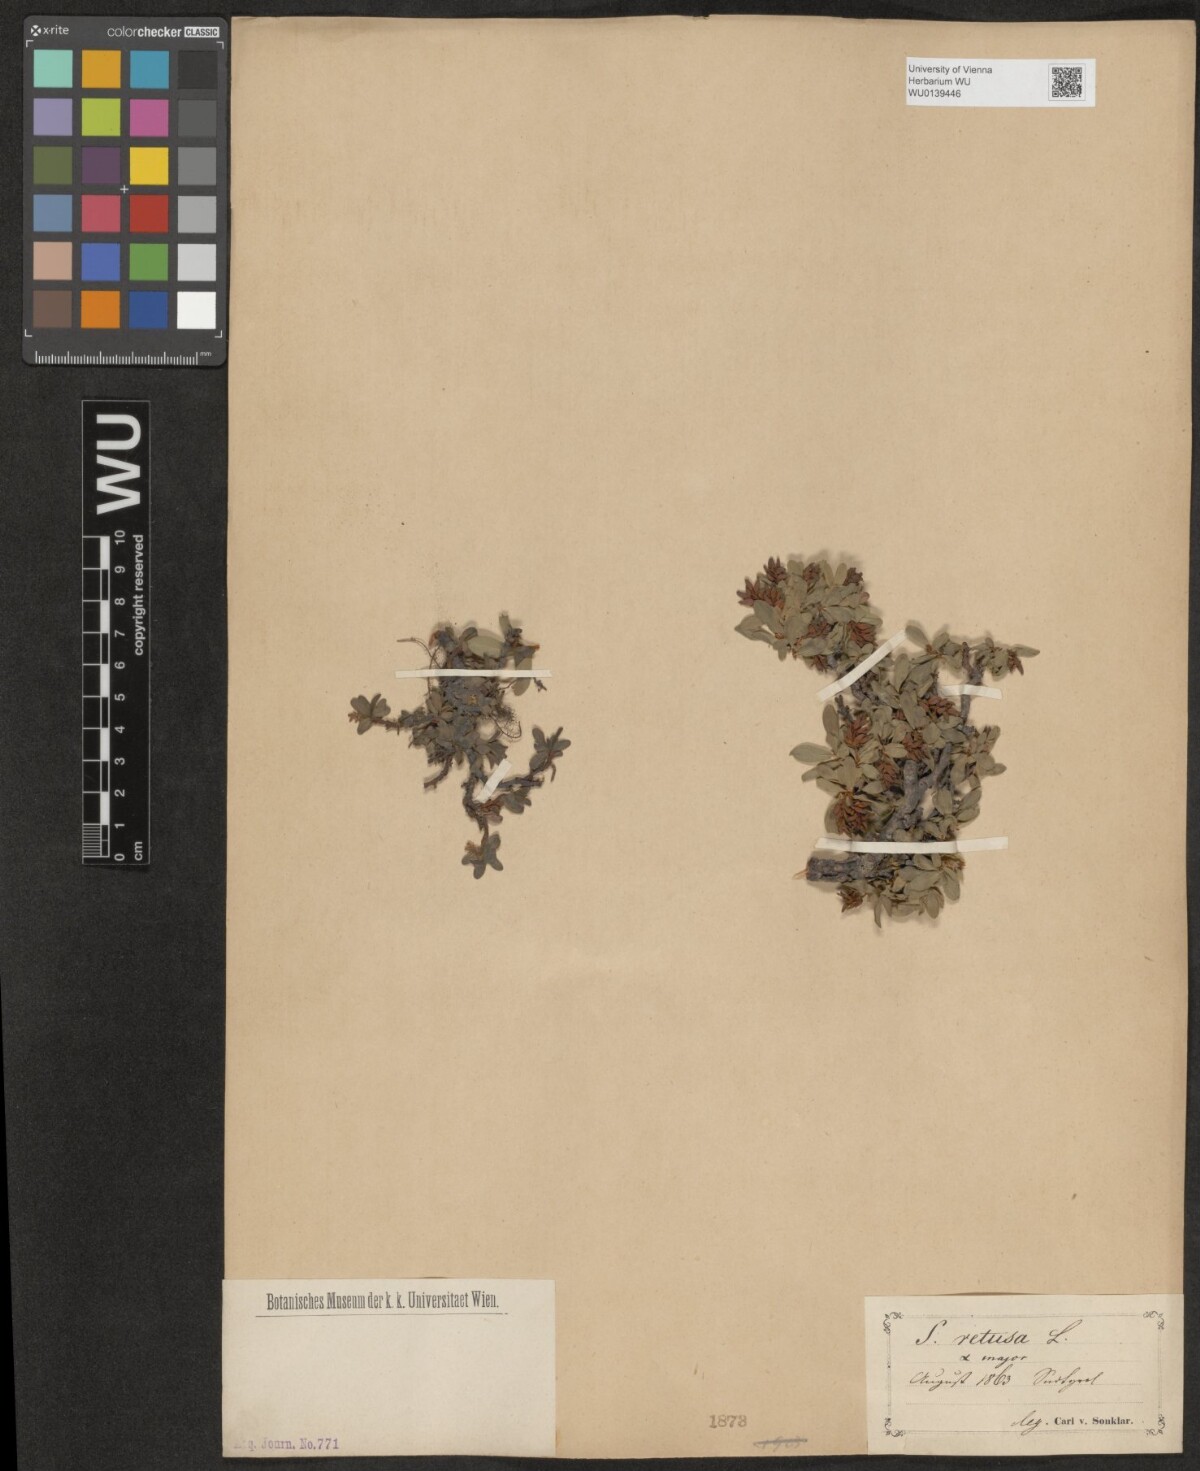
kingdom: Plantae
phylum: Tracheophyta
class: Magnoliopsida
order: Malpighiales
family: Salicaceae
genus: Salix
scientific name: Salix retusa
